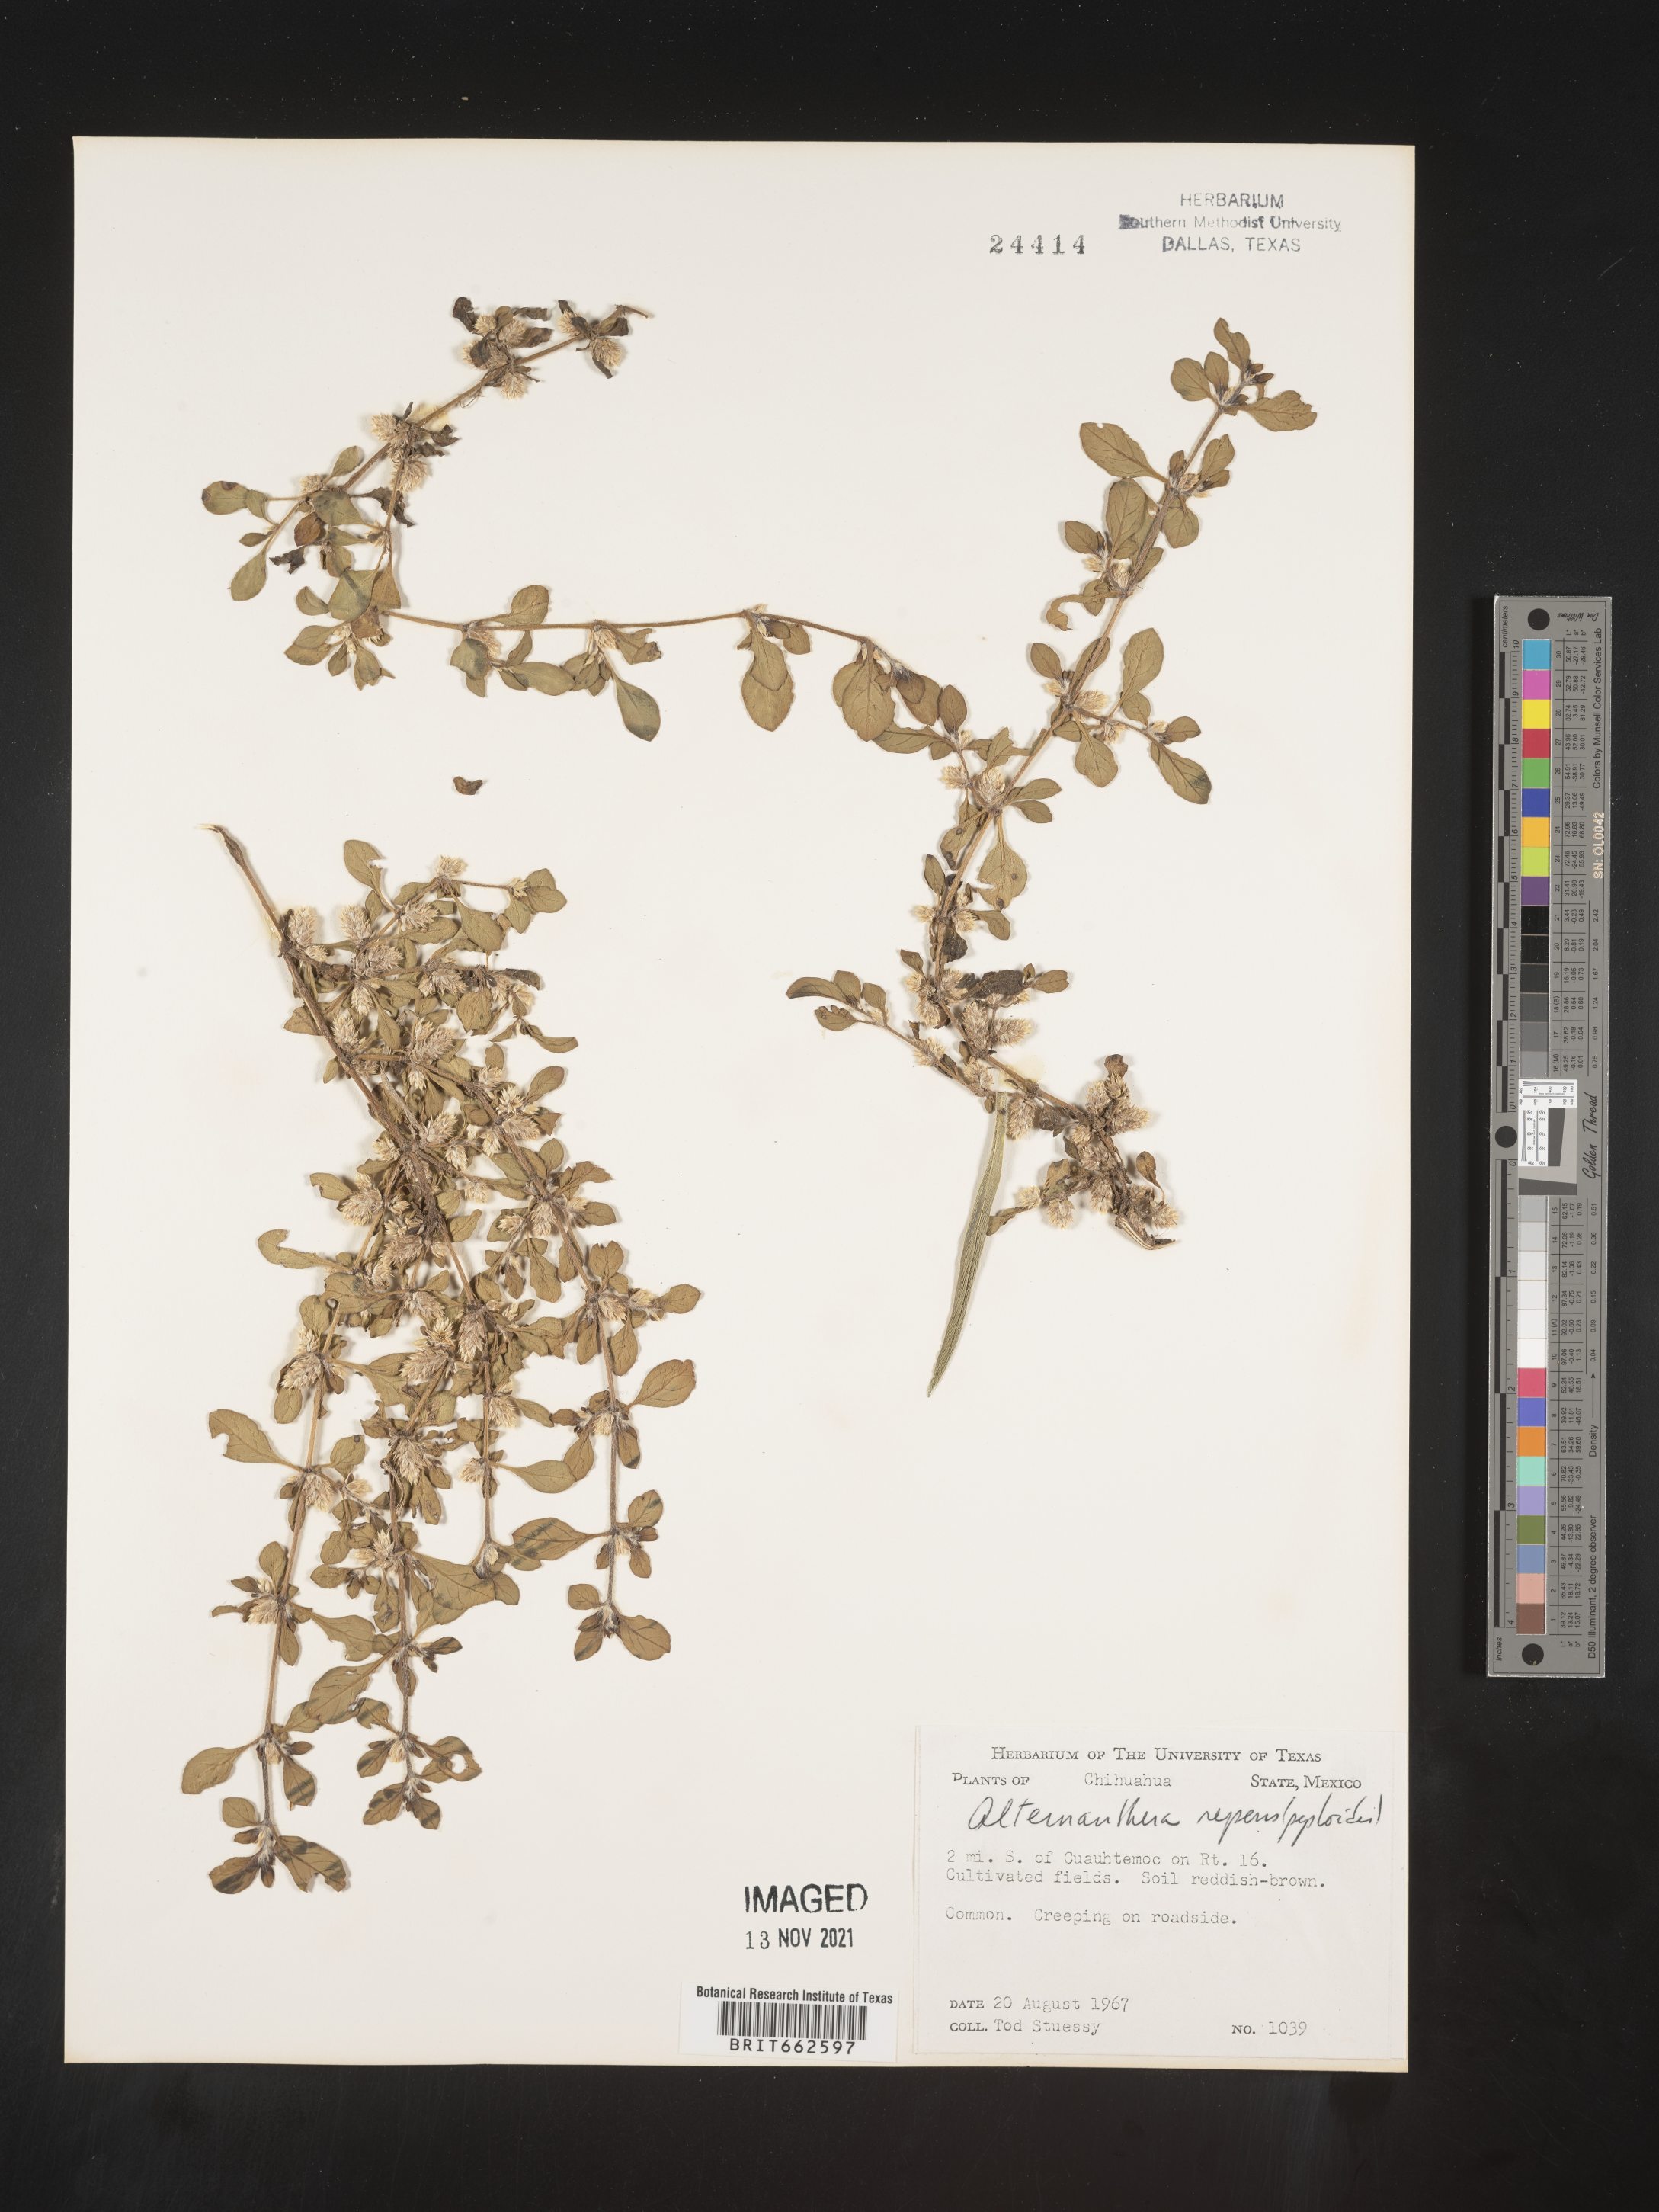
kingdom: Plantae
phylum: Tracheophyta
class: Magnoliopsida
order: Caryophyllales
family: Amaranthaceae
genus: Alternanthera
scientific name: Alternanthera
